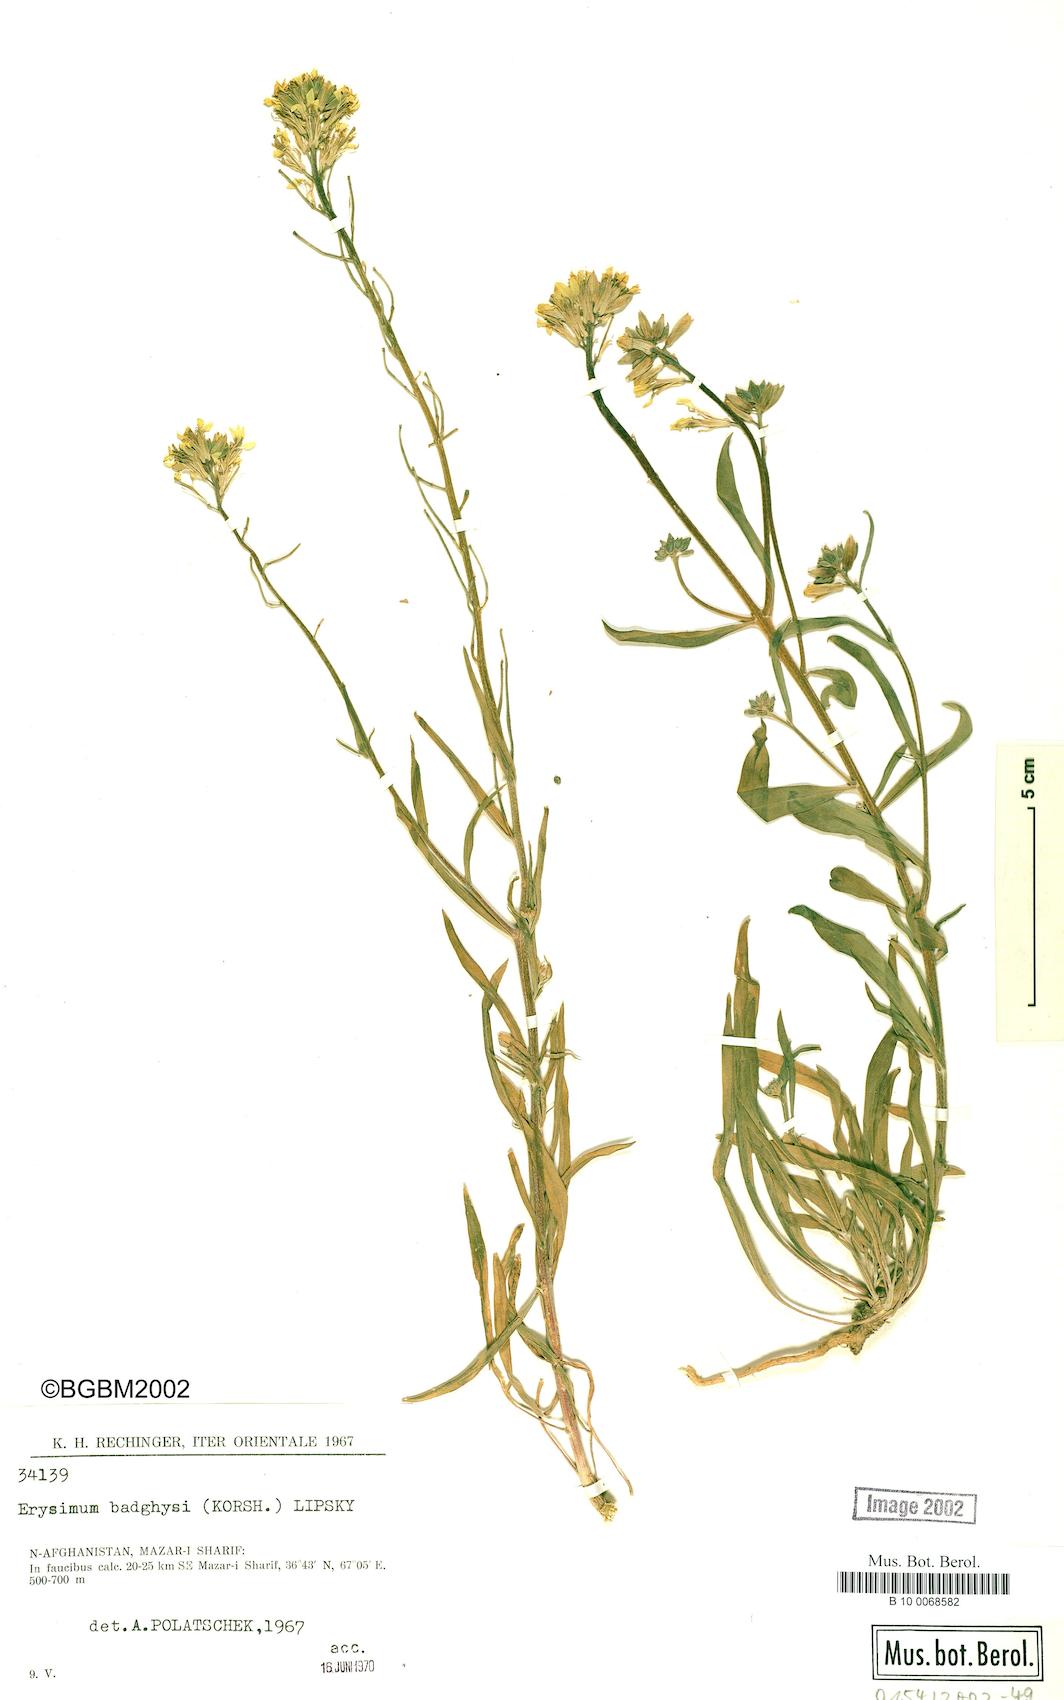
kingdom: Plantae
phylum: Tracheophyta
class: Magnoliopsida
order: Brassicales
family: Brassicaceae
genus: Erysimum
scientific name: Erysimum badghysi
